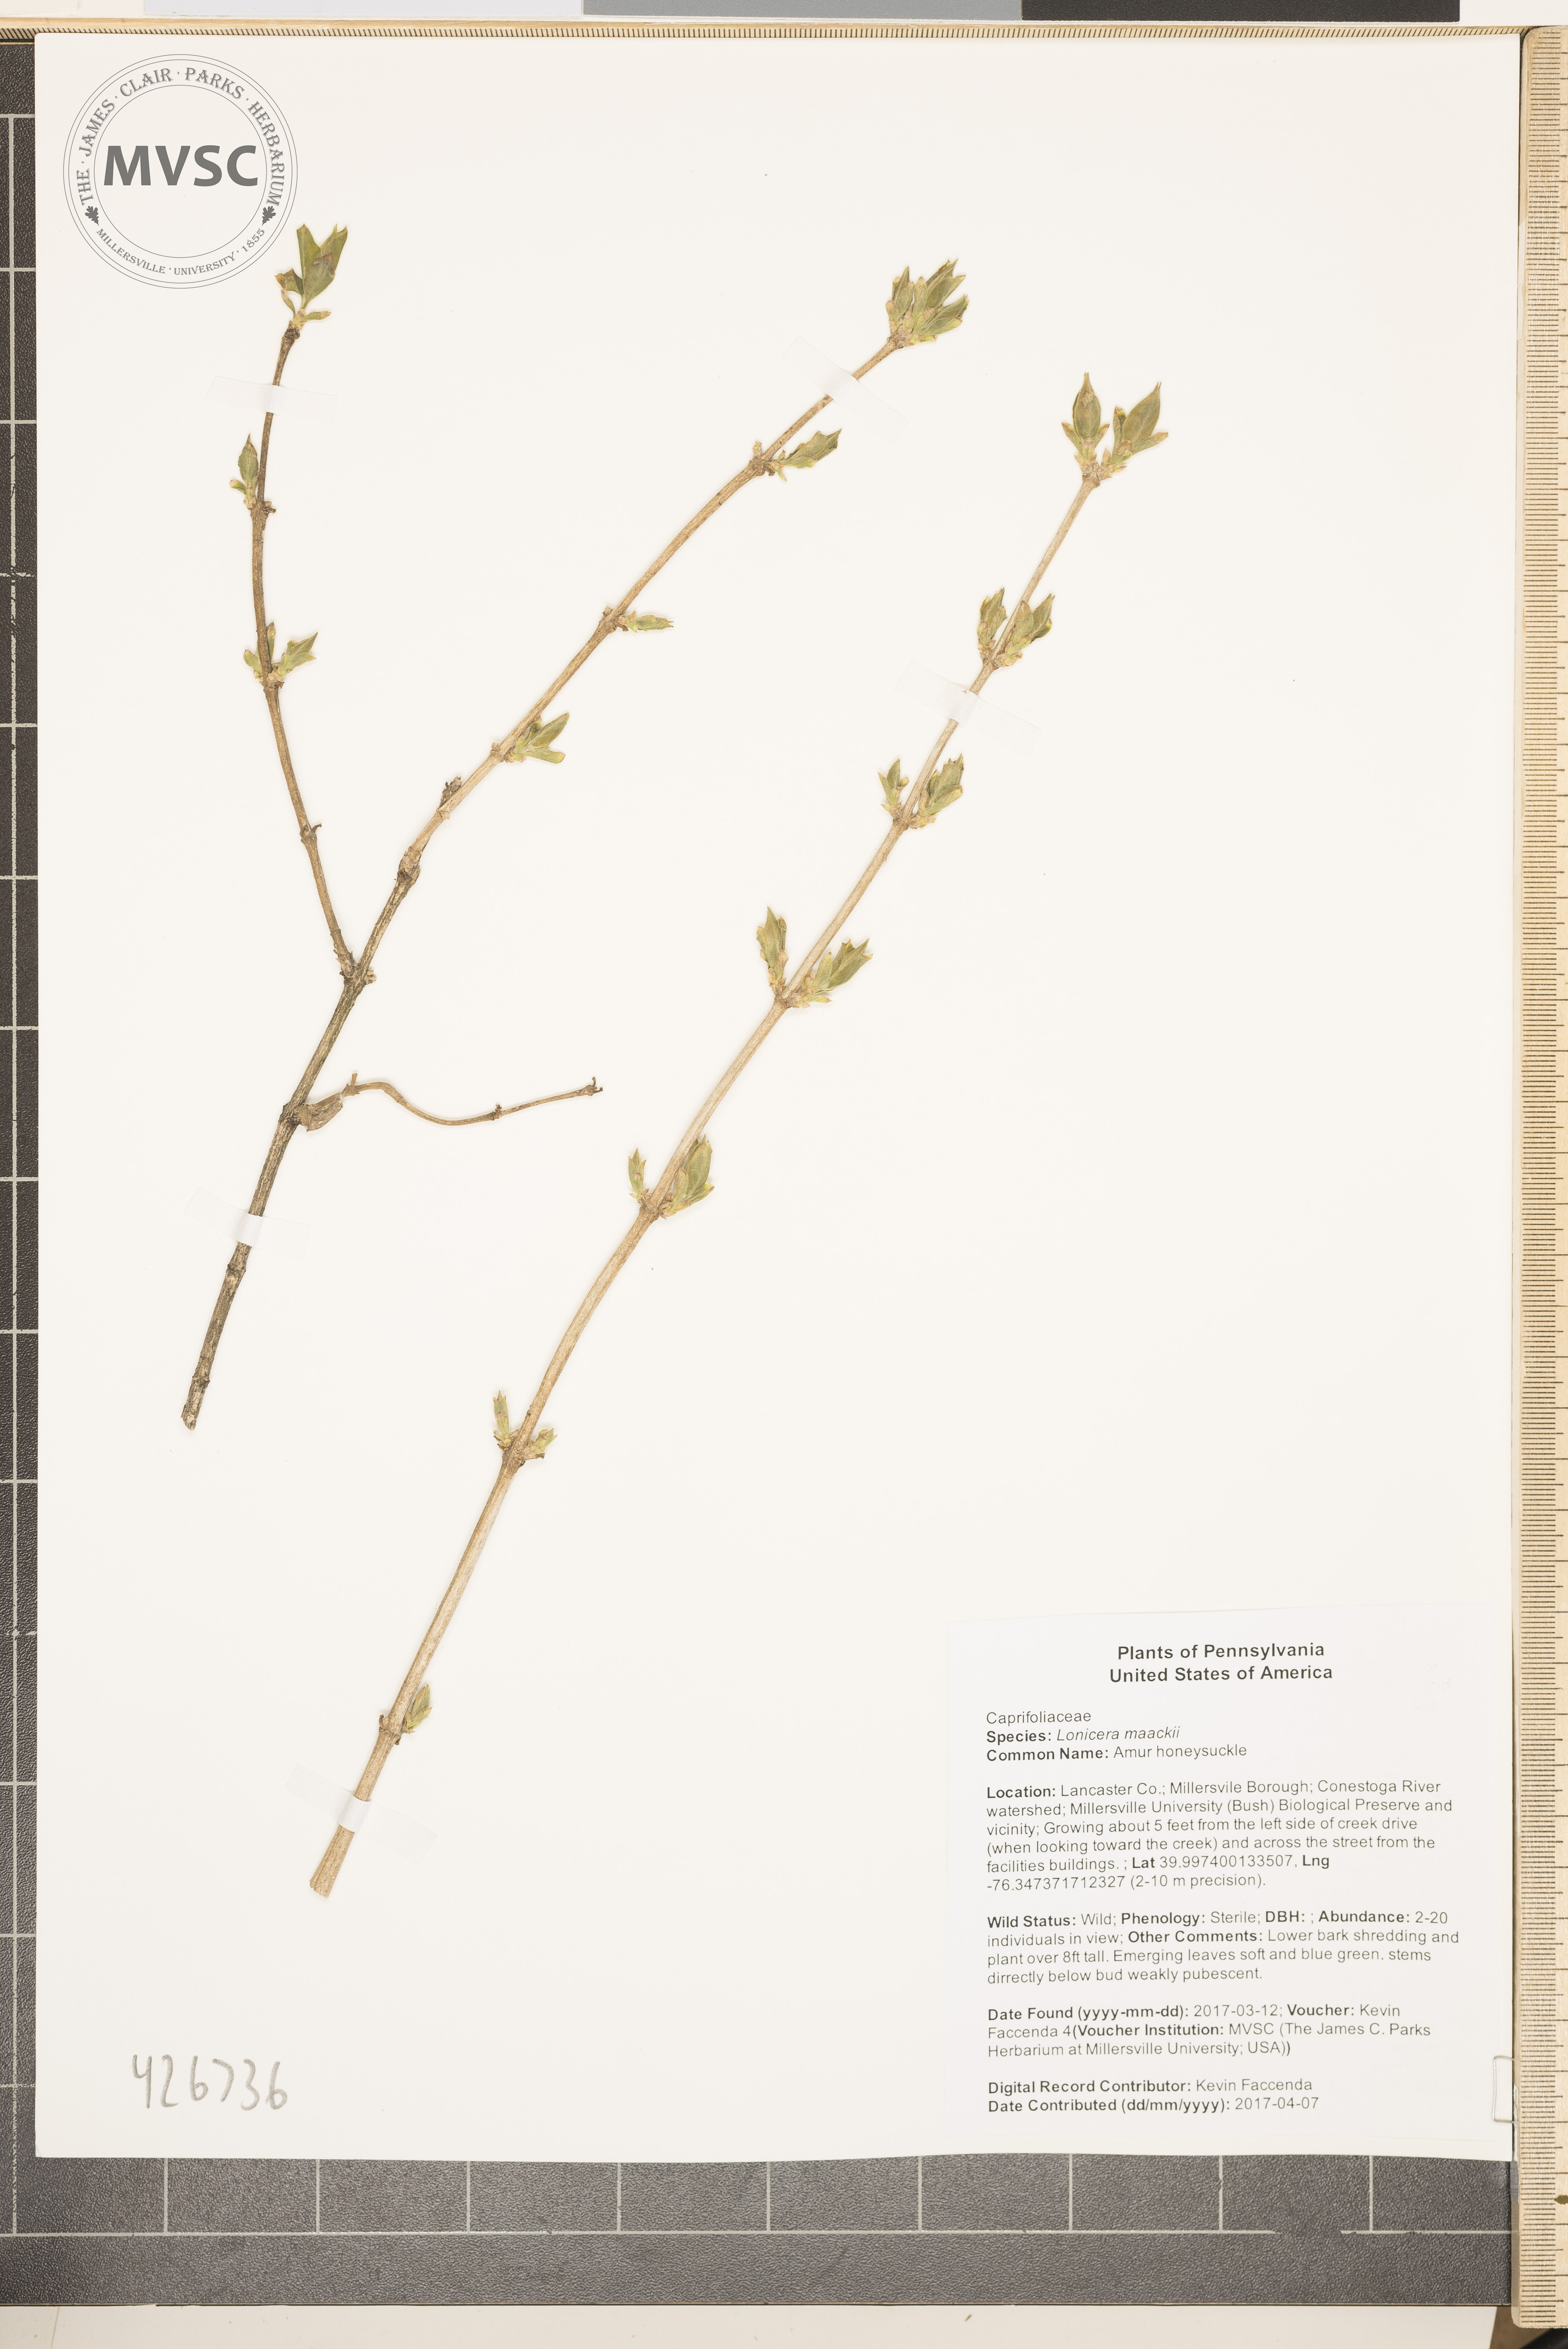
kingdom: Plantae
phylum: Tracheophyta
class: Magnoliopsida
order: Dipsacales
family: Caprifoliaceae
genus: Lonicera
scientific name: Lonicera maackii
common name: Amur honeysuckle
